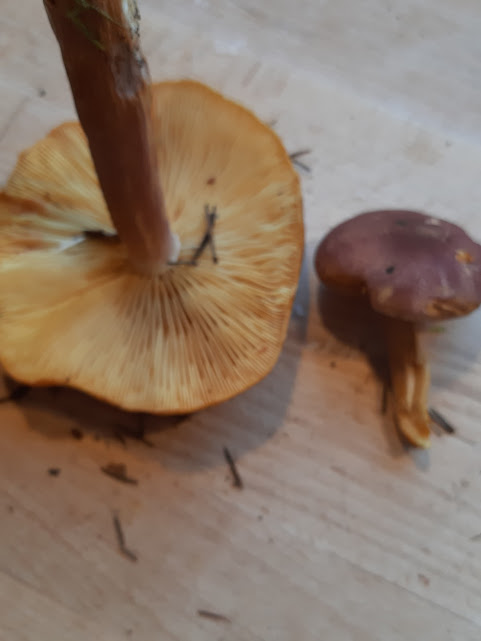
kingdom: Fungi
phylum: Basidiomycota
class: Agaricomycetes
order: Agaricales
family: Tricholomataceae
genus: Tricholomopsis
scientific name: Tricholomopsis rutilans
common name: purpur-væbnerhat
